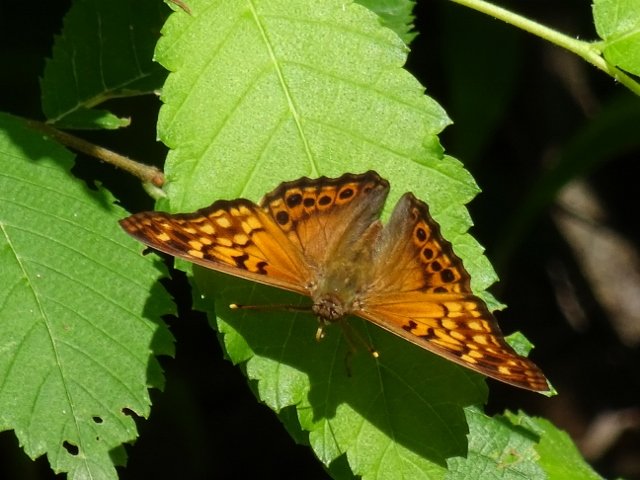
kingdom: Animalia
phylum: Arthropoda
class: Insecta
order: Lepidoptera
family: Nymphalidae
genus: Asterocampa
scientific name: Asterocampa clyton
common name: Tawny Emperor
